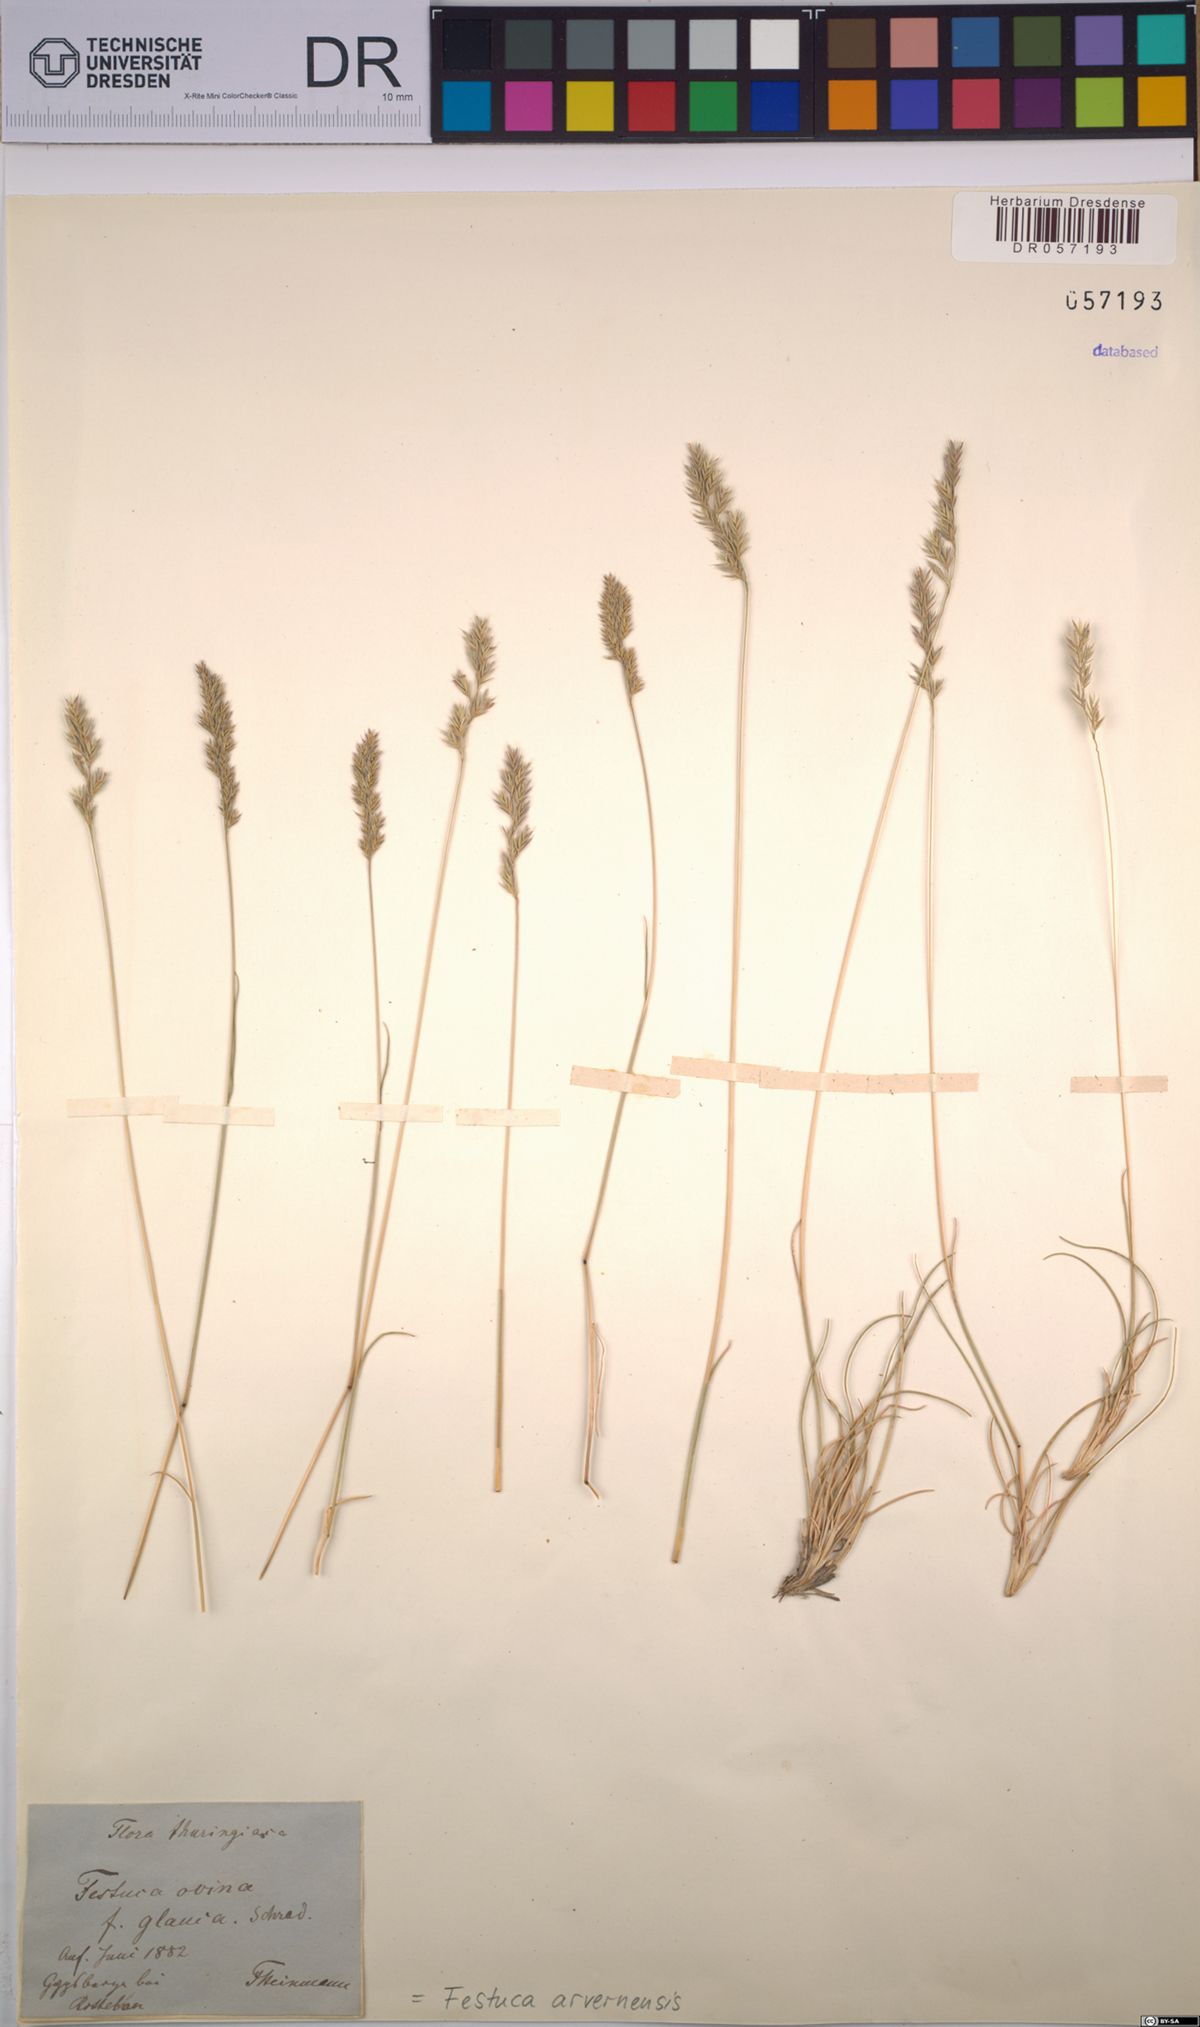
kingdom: Plantae
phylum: Tracheophyta
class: Liliopsida
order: Poales
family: Poaceae
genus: Festuca
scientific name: Festuca arvernensis
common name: Field fescue
